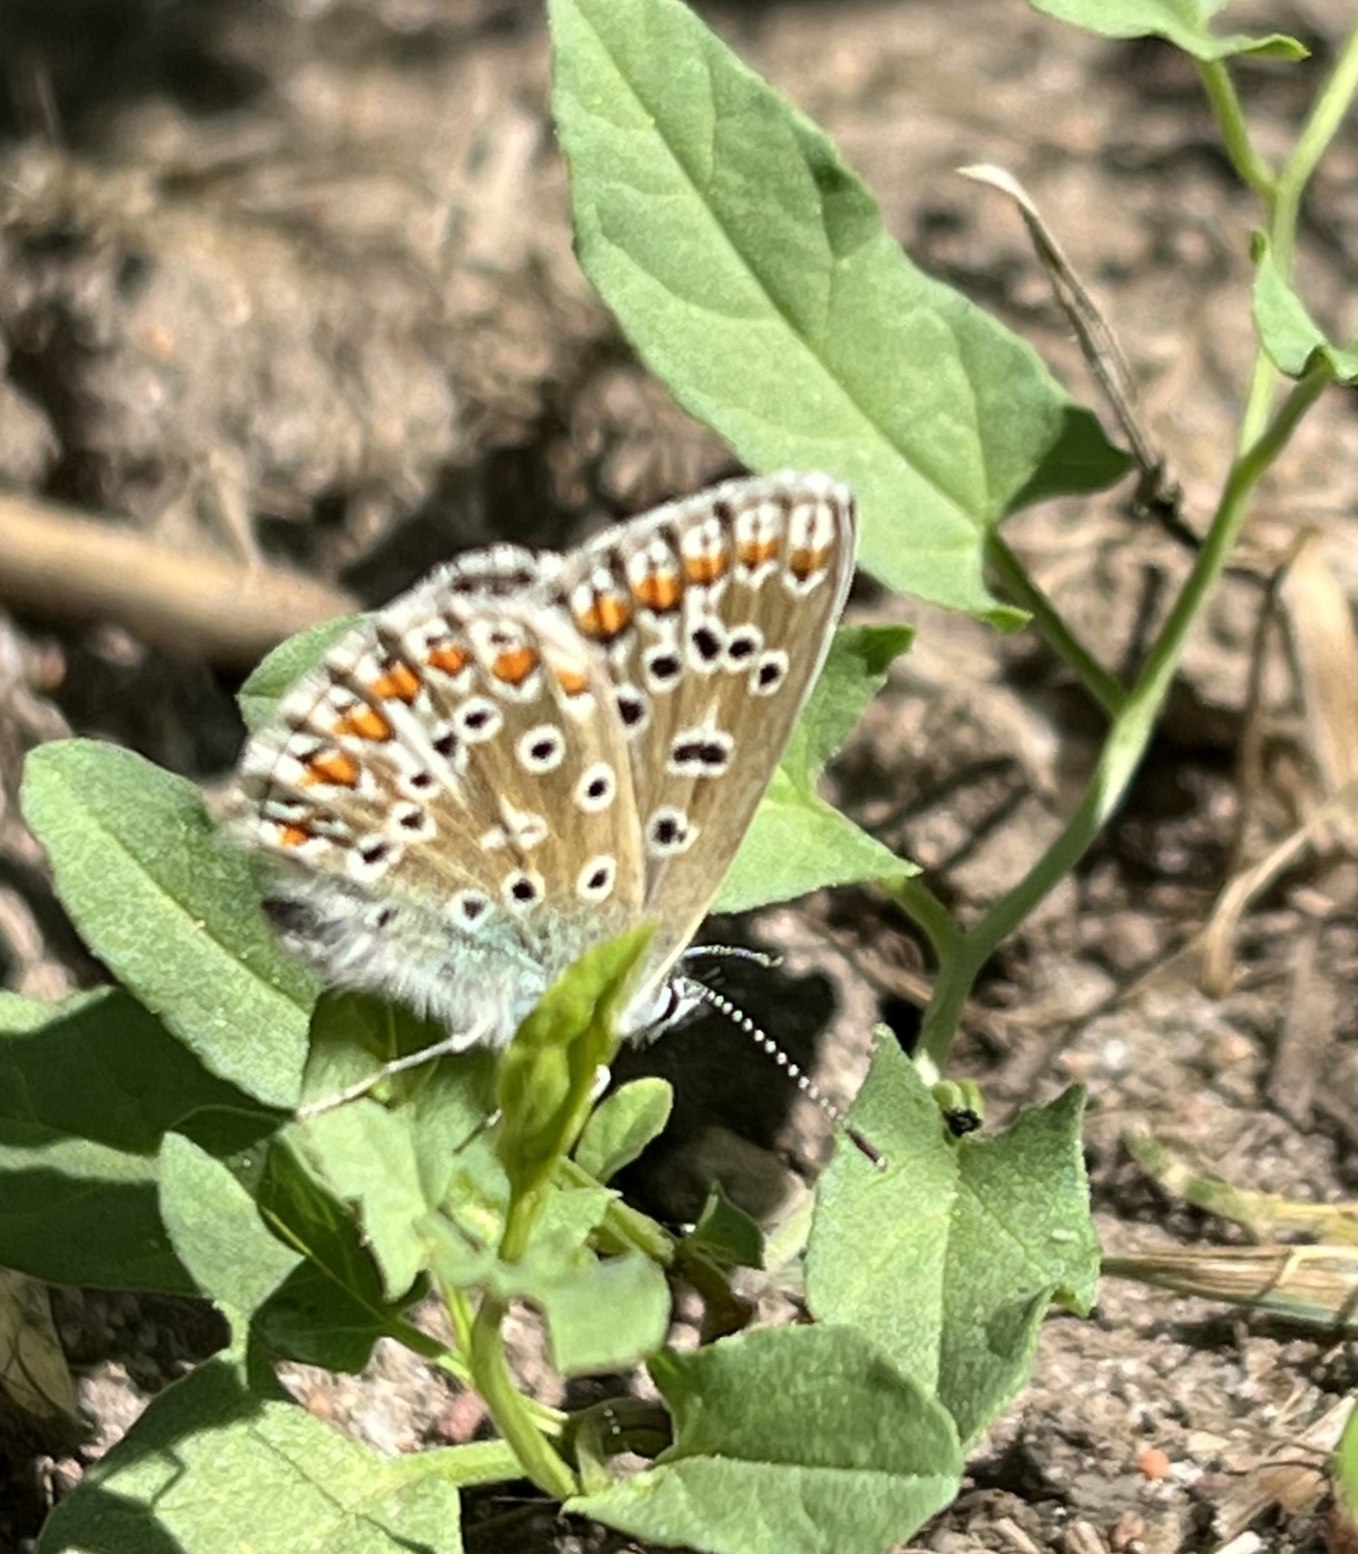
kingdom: Animalia
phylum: Arthropoda
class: Insecta
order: Lepidoptera
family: Lycaenidae
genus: Polyommatus
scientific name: Polyommatus icarus
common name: Almindelig blåfugl
